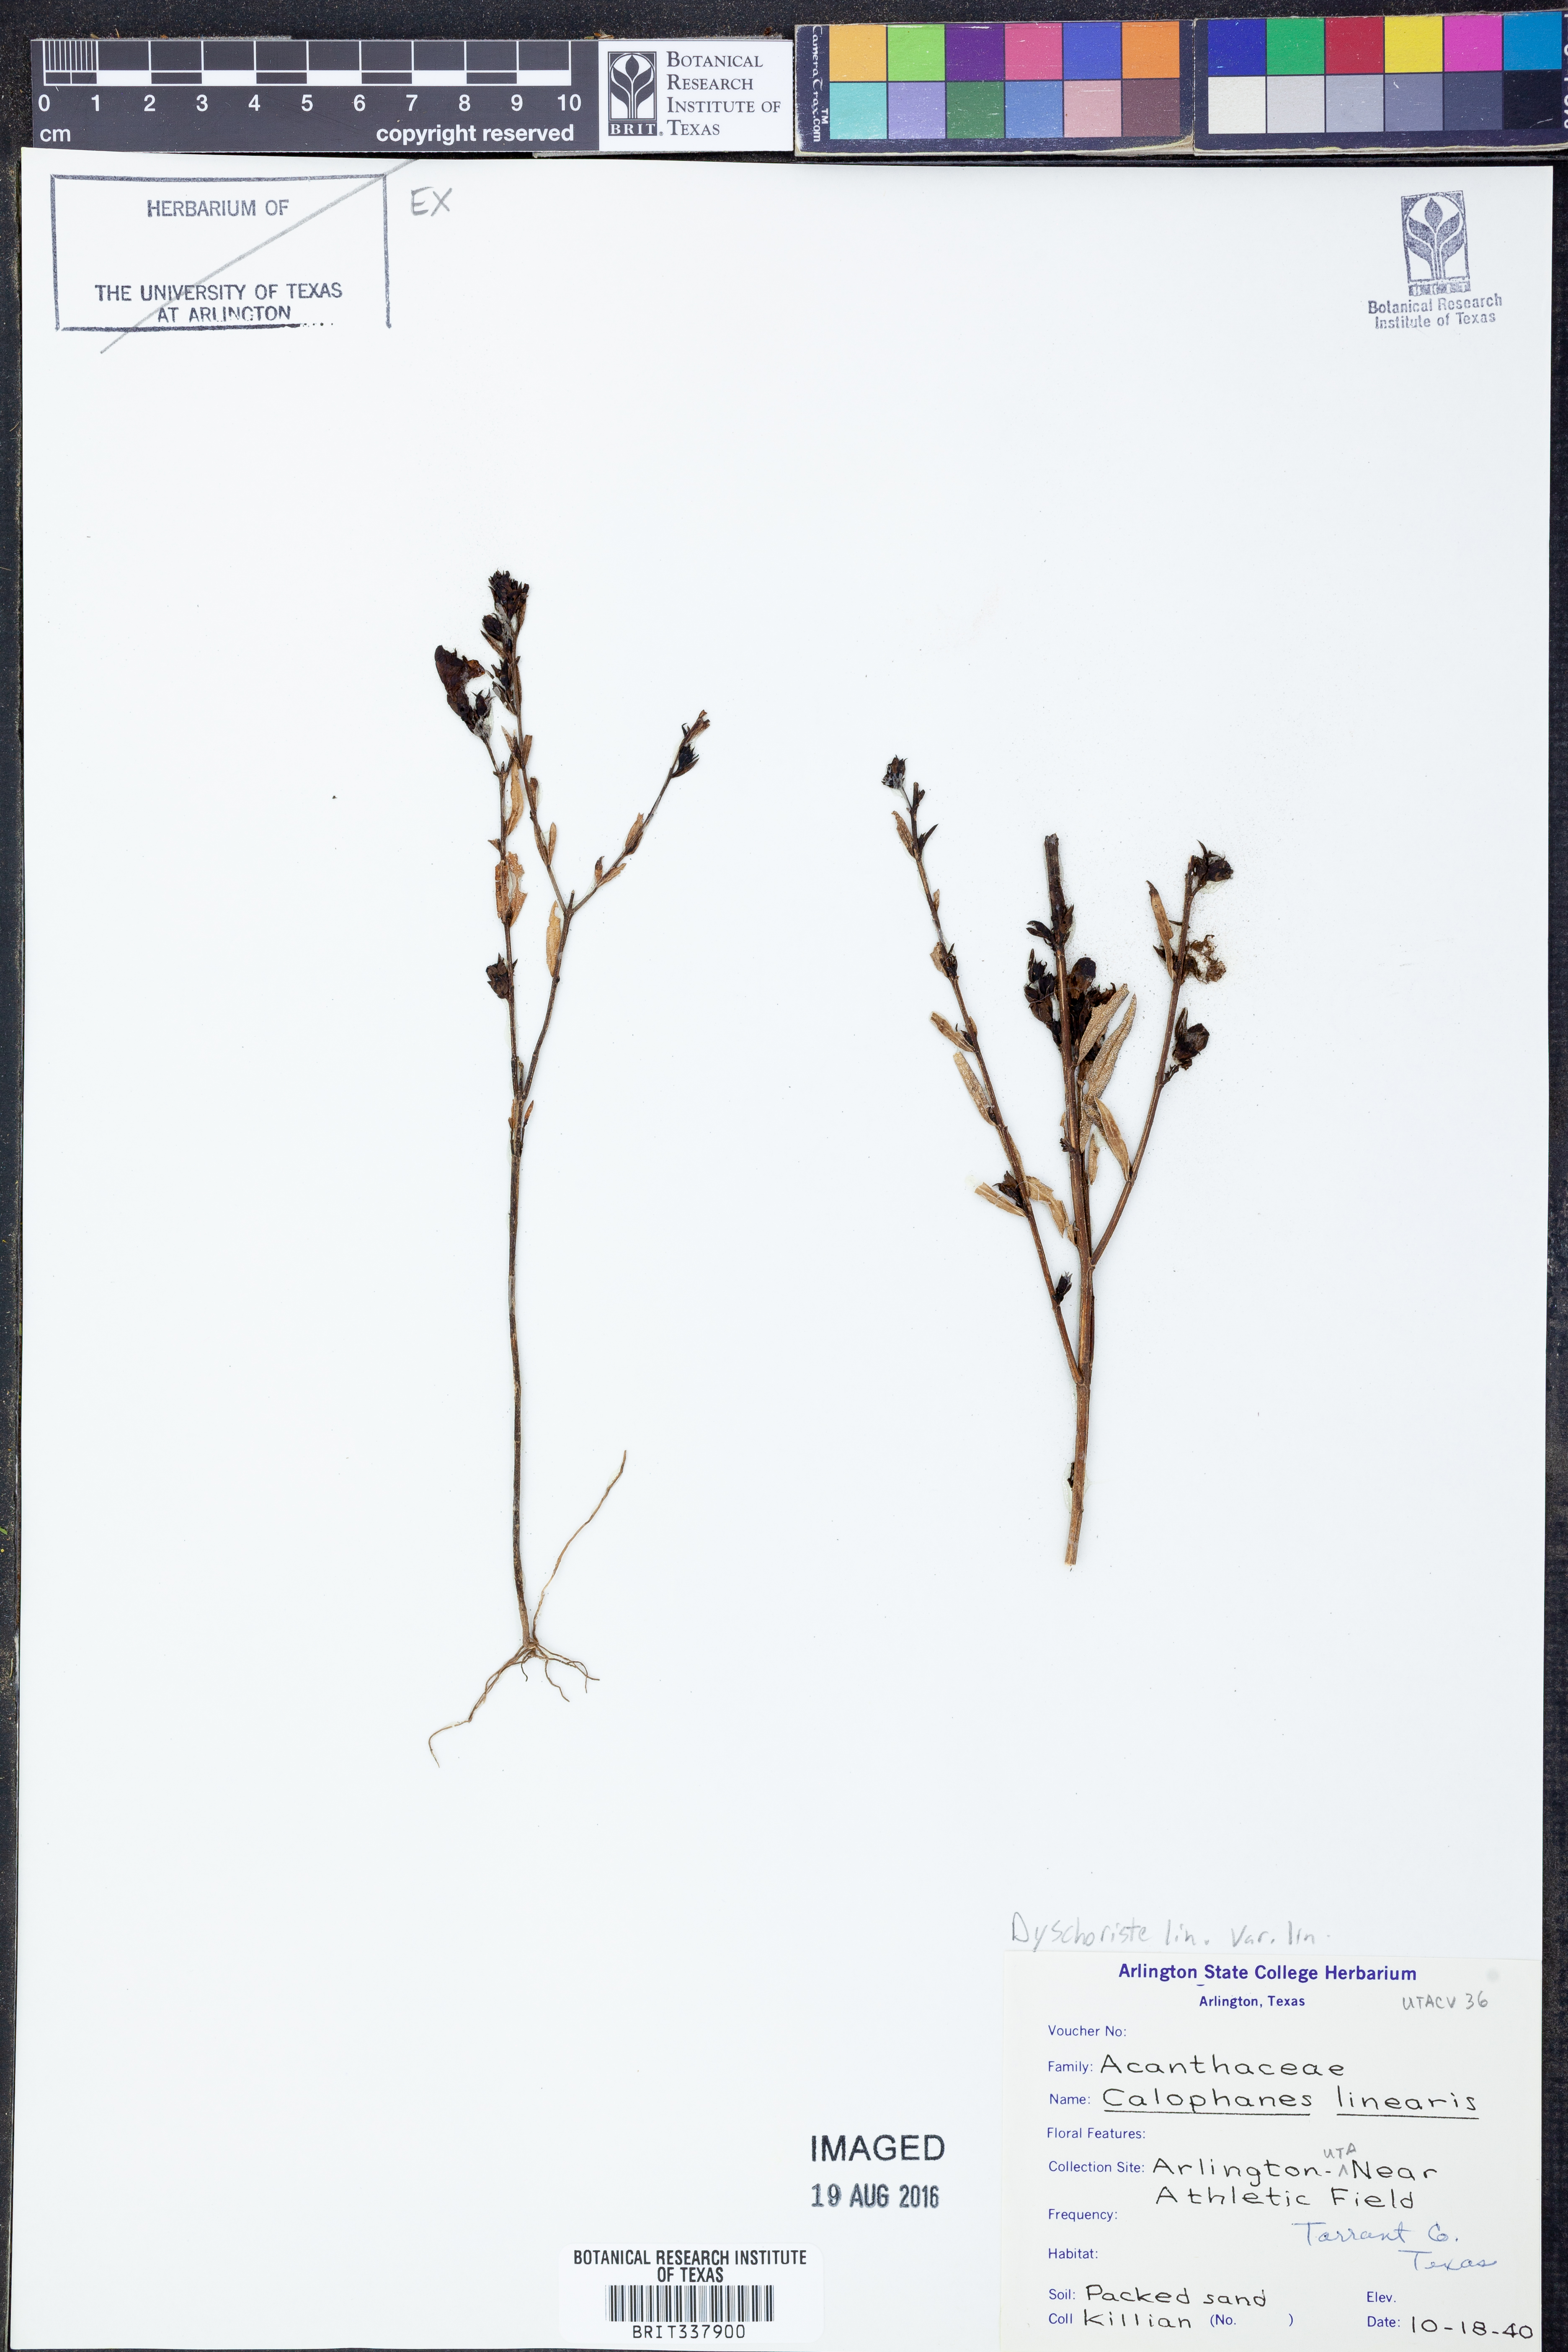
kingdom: Plantae
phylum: Tracheophyta
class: Magnoliopsida
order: Lamiales
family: Acanthaceae
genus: Dyschoriste
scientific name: Dyschoriste linearis
